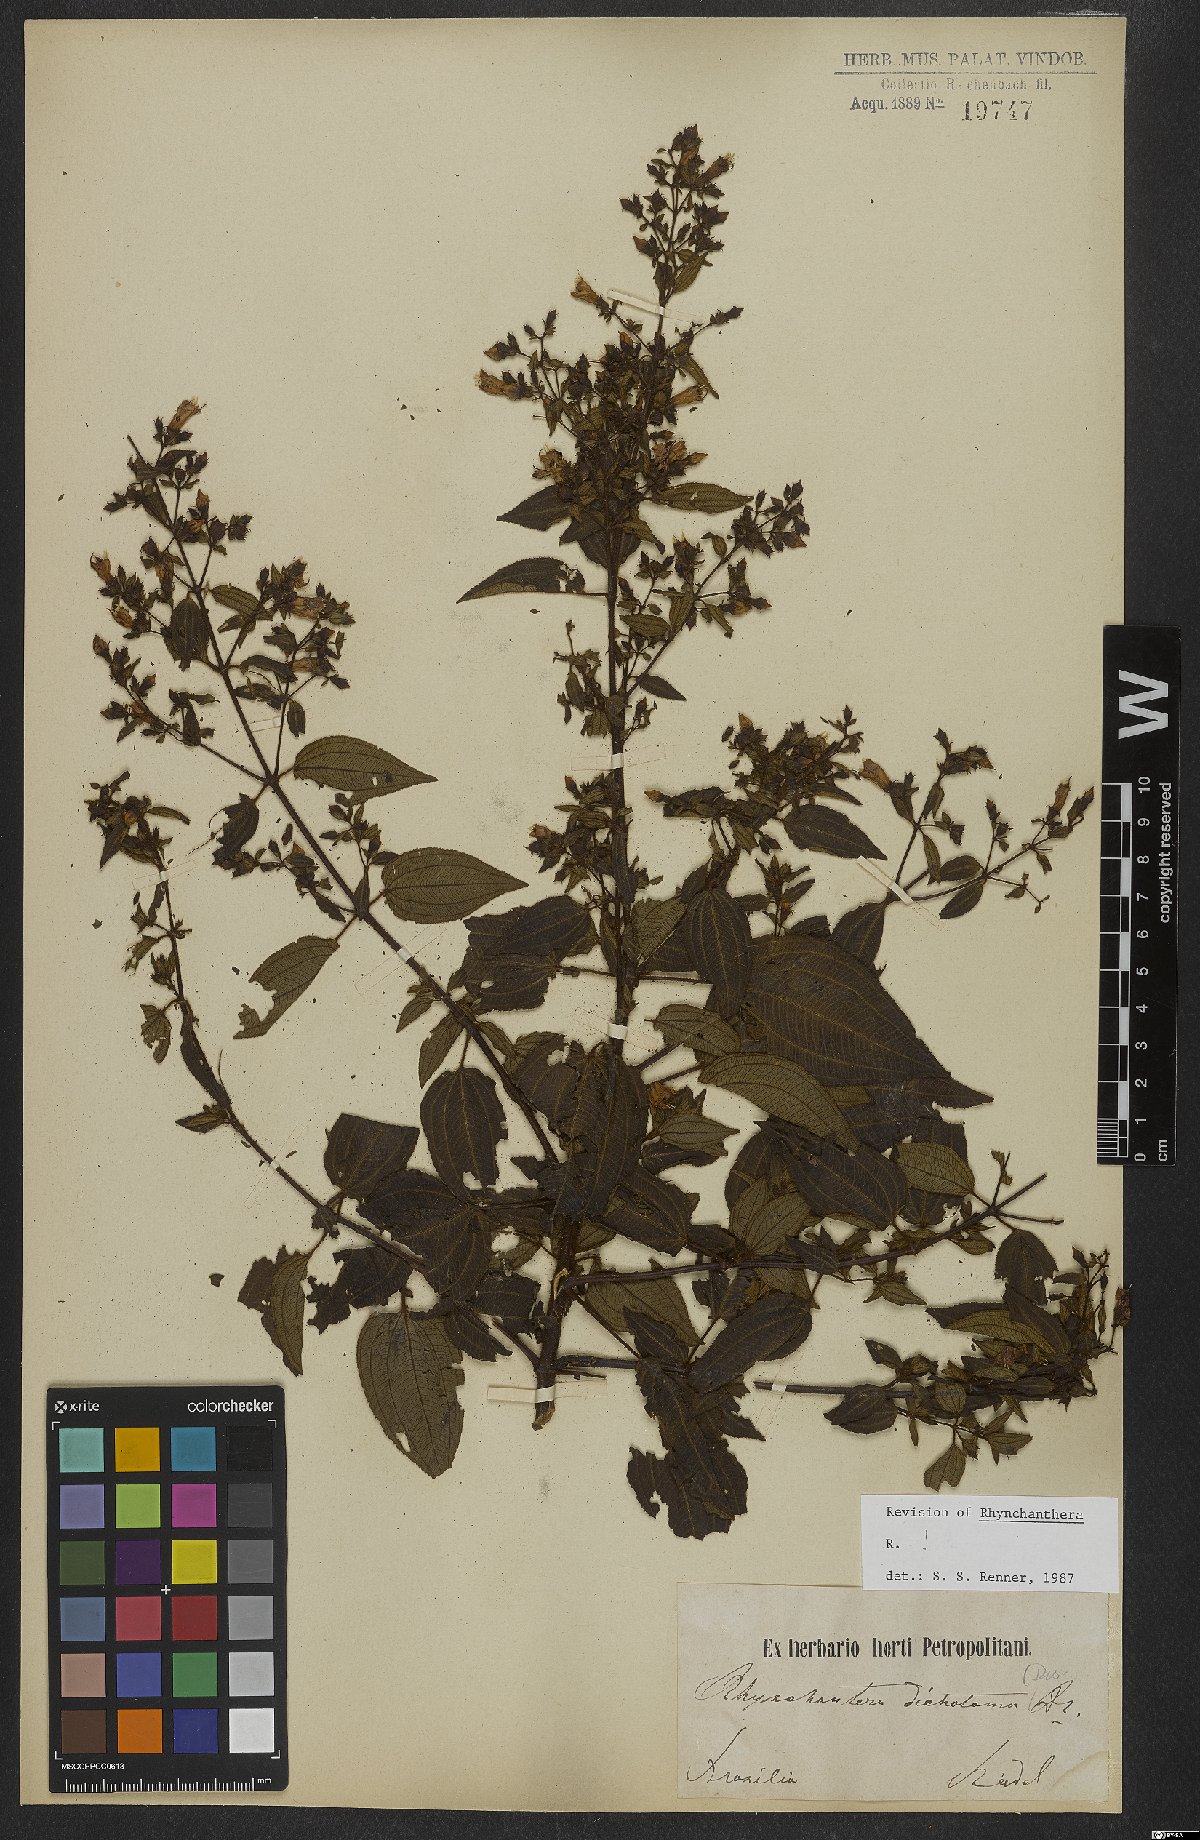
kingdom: Plantae
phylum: Tracheophyta
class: Magnoliopsida
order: Myrtales
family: Melastomataceae
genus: Rhynchanthera
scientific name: Rhynchanthera dichotoma
